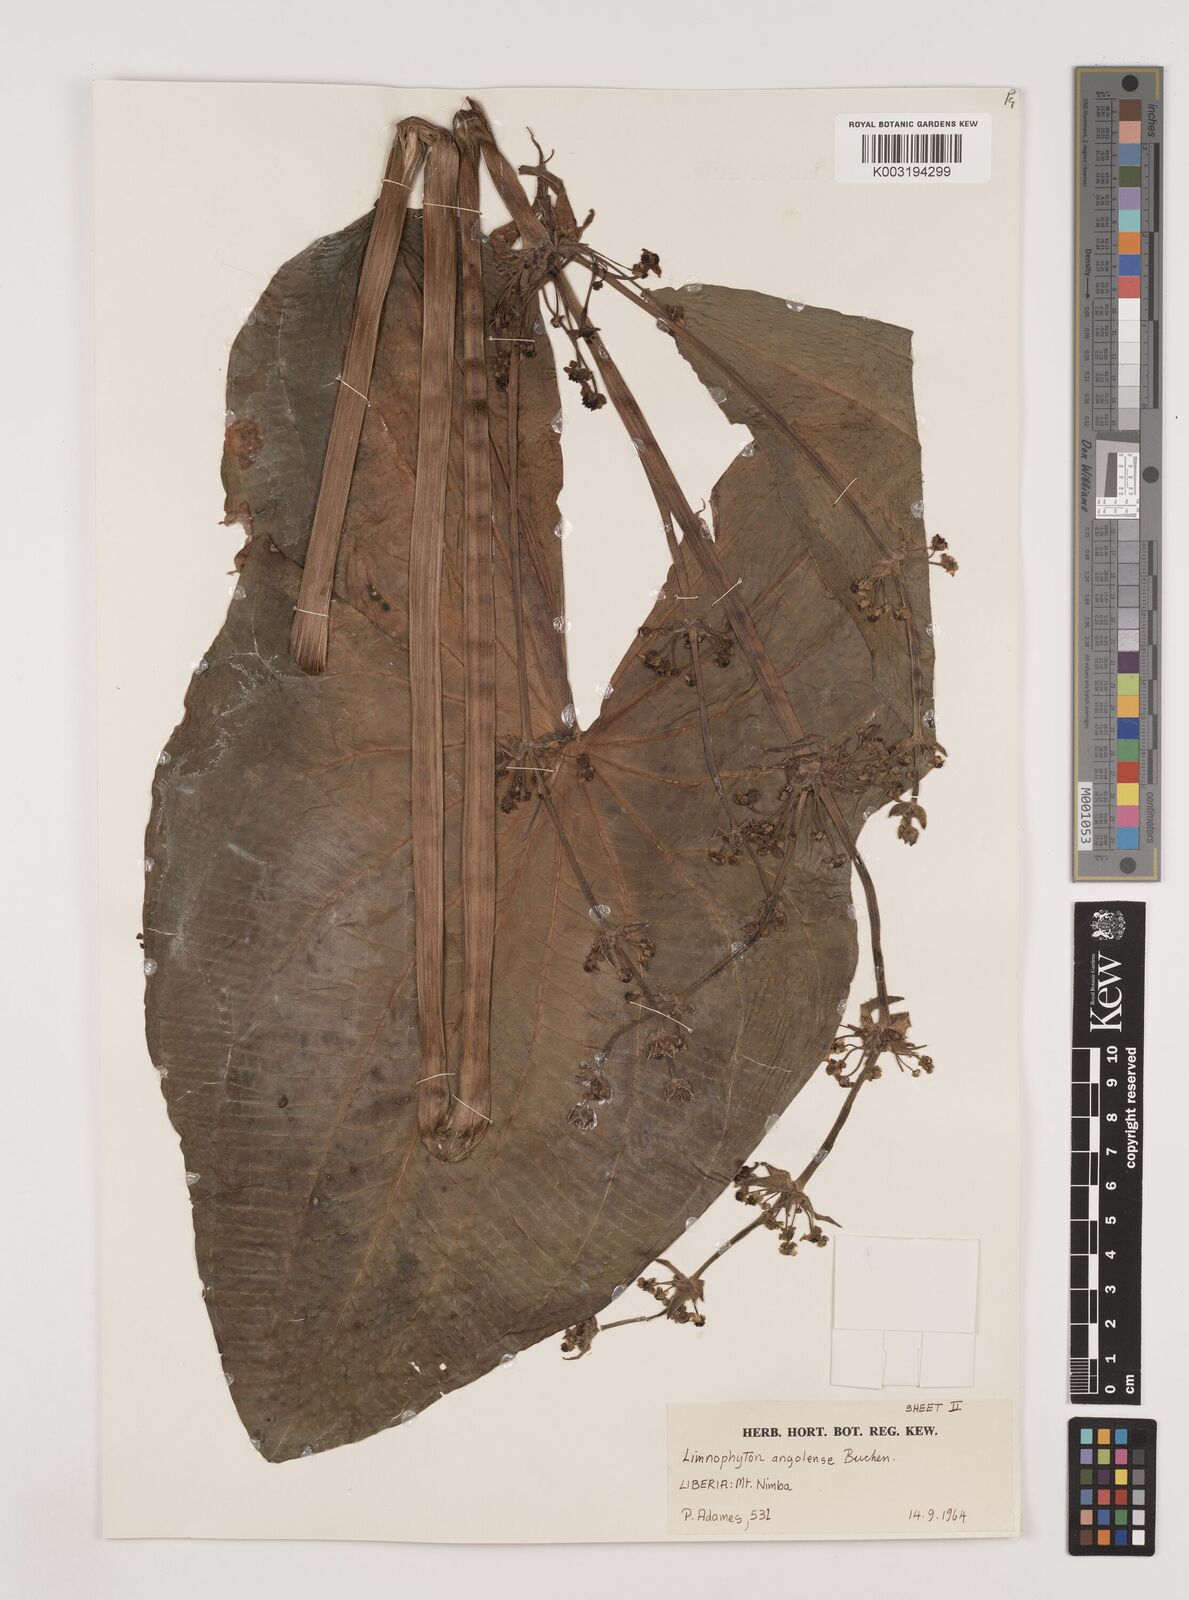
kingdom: Plantae
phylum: Tracheophyta
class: Liliopsida
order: Alismatales
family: Alismataceae
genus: Limnophyton
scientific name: Limnophyton angolense
